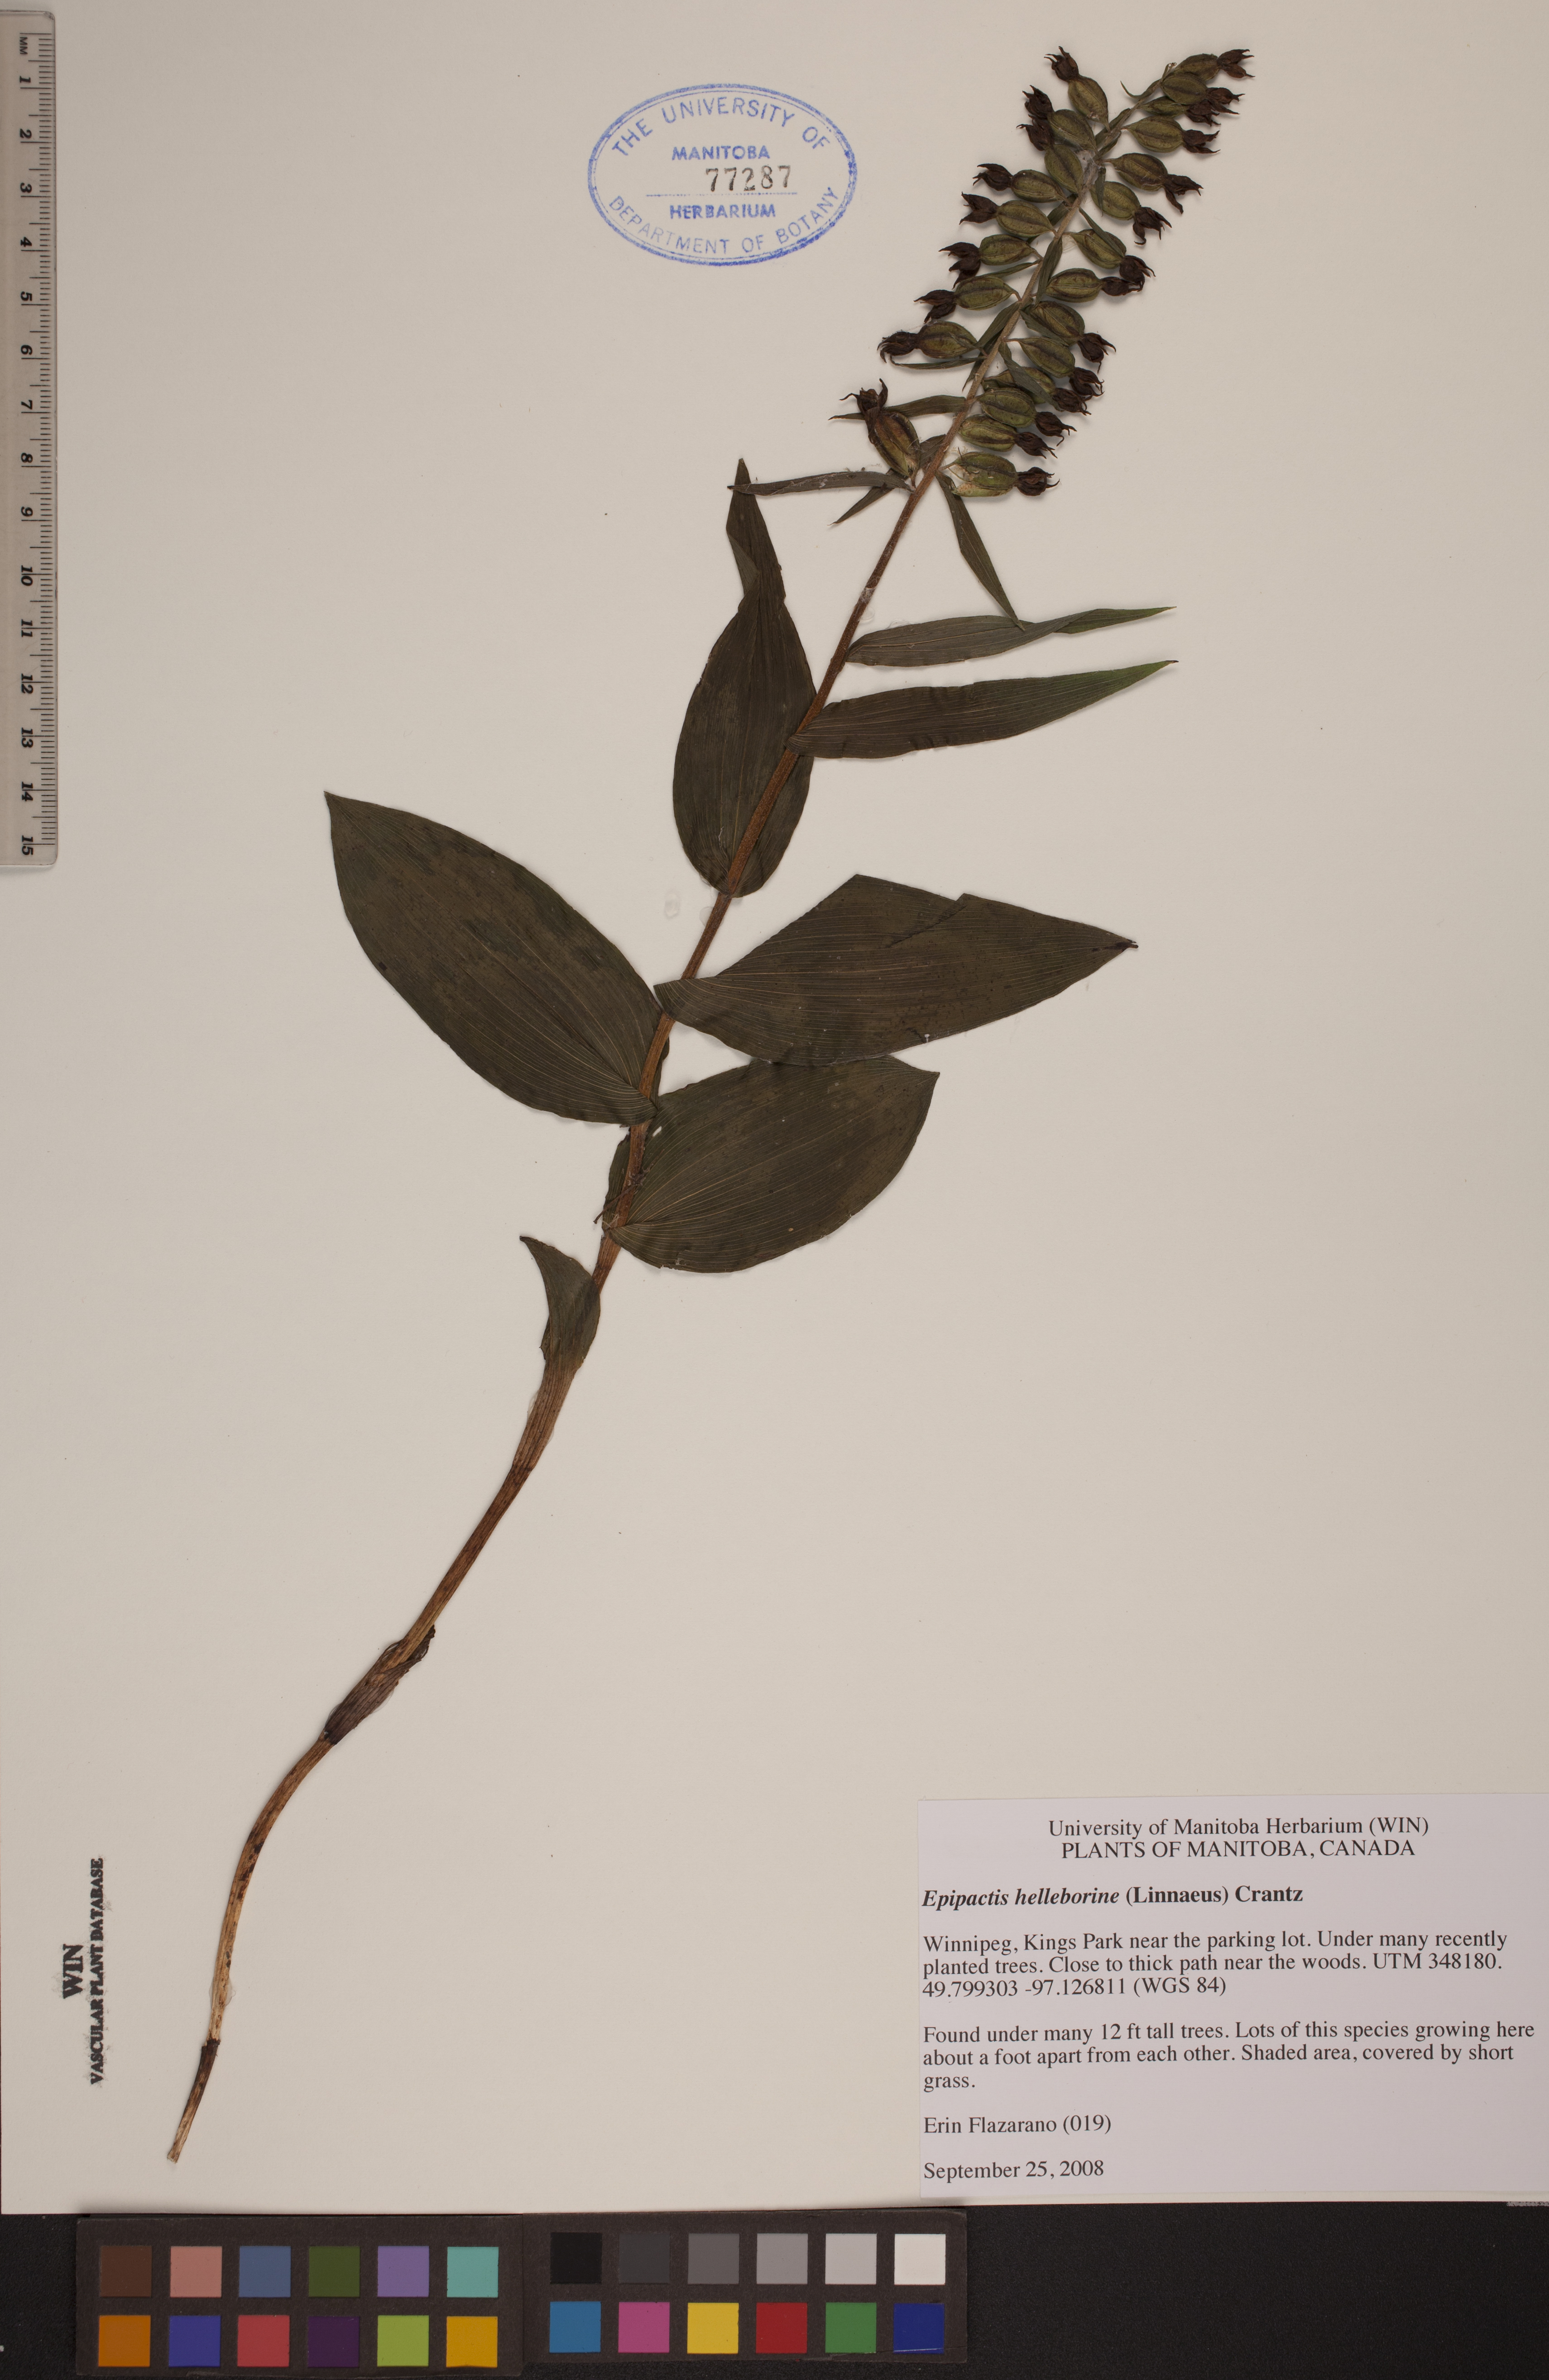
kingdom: Plantae
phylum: Tracheophyta
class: Liliopsida
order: Asparagales
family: Orchidaceae
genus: Epipactis
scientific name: Epipactis helleborine
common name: Broad-leaved helleborine
